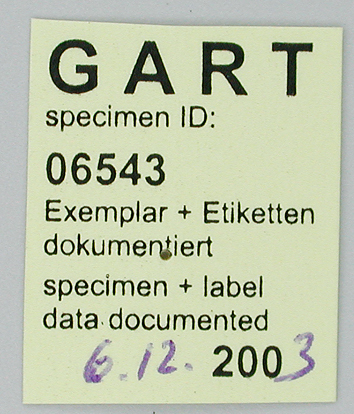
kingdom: Animalia
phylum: Arthropoda
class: Insecta
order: Lepidoptera
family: Papilionidae
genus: Parnassius
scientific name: Parnassius bremeri
